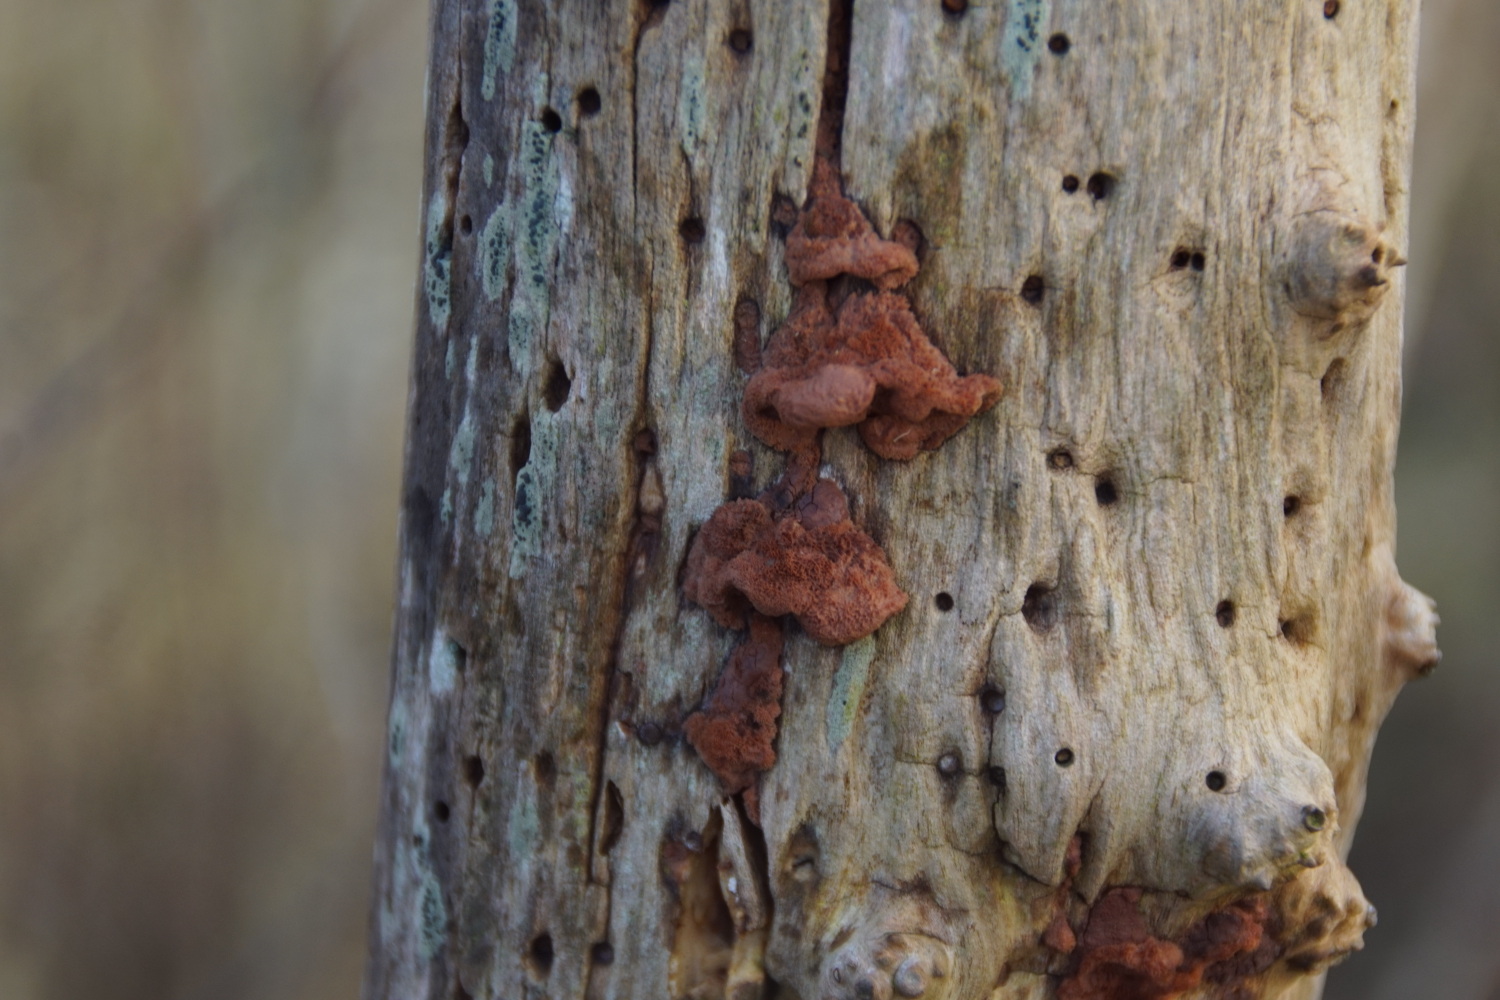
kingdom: Fungi
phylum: Basidiomycota
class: Agaricomycetes
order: Polyporales
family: Phanerochaetaceae
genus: Hapalopilus
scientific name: Hapalopilus rutilans
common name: rødlig okkerporesvamp
